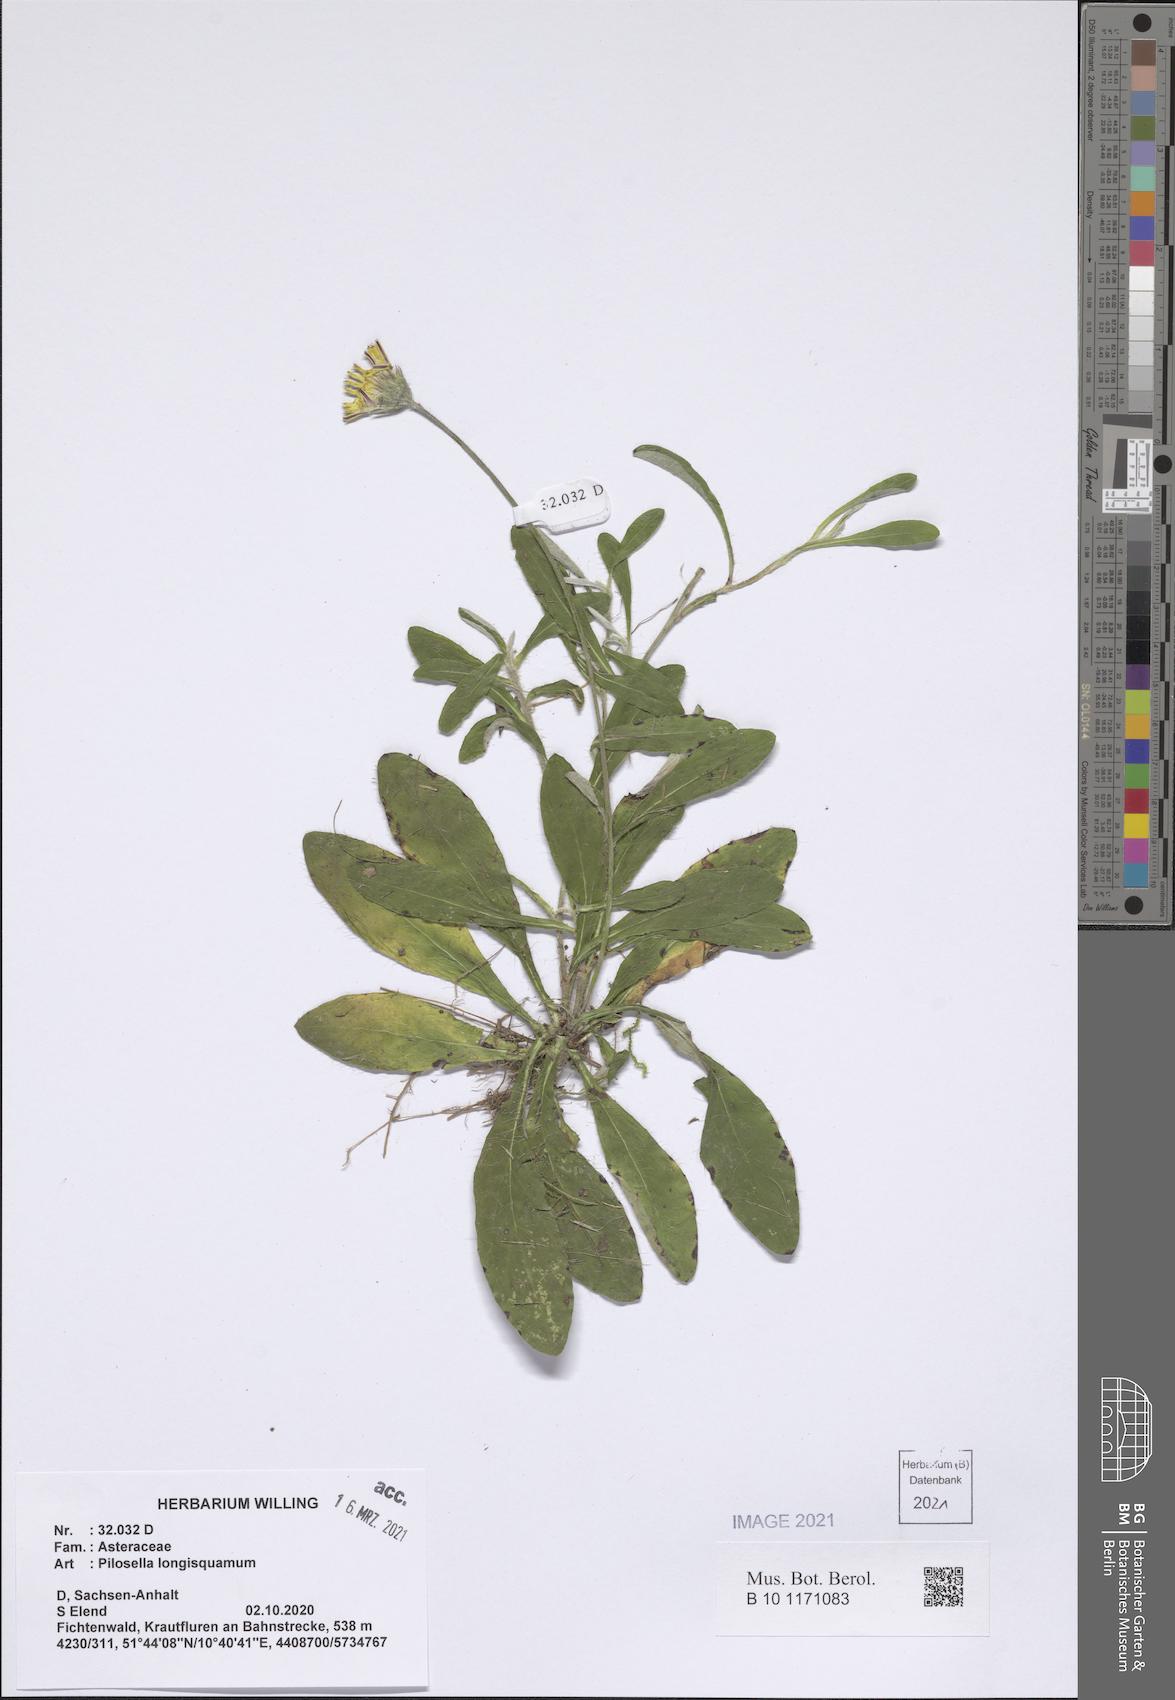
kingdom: Plantae
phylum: Tracheophyta
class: Magnoliopsida
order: Asterales
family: Asteraceae
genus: Pilosella
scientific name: Pilosella longisquama
